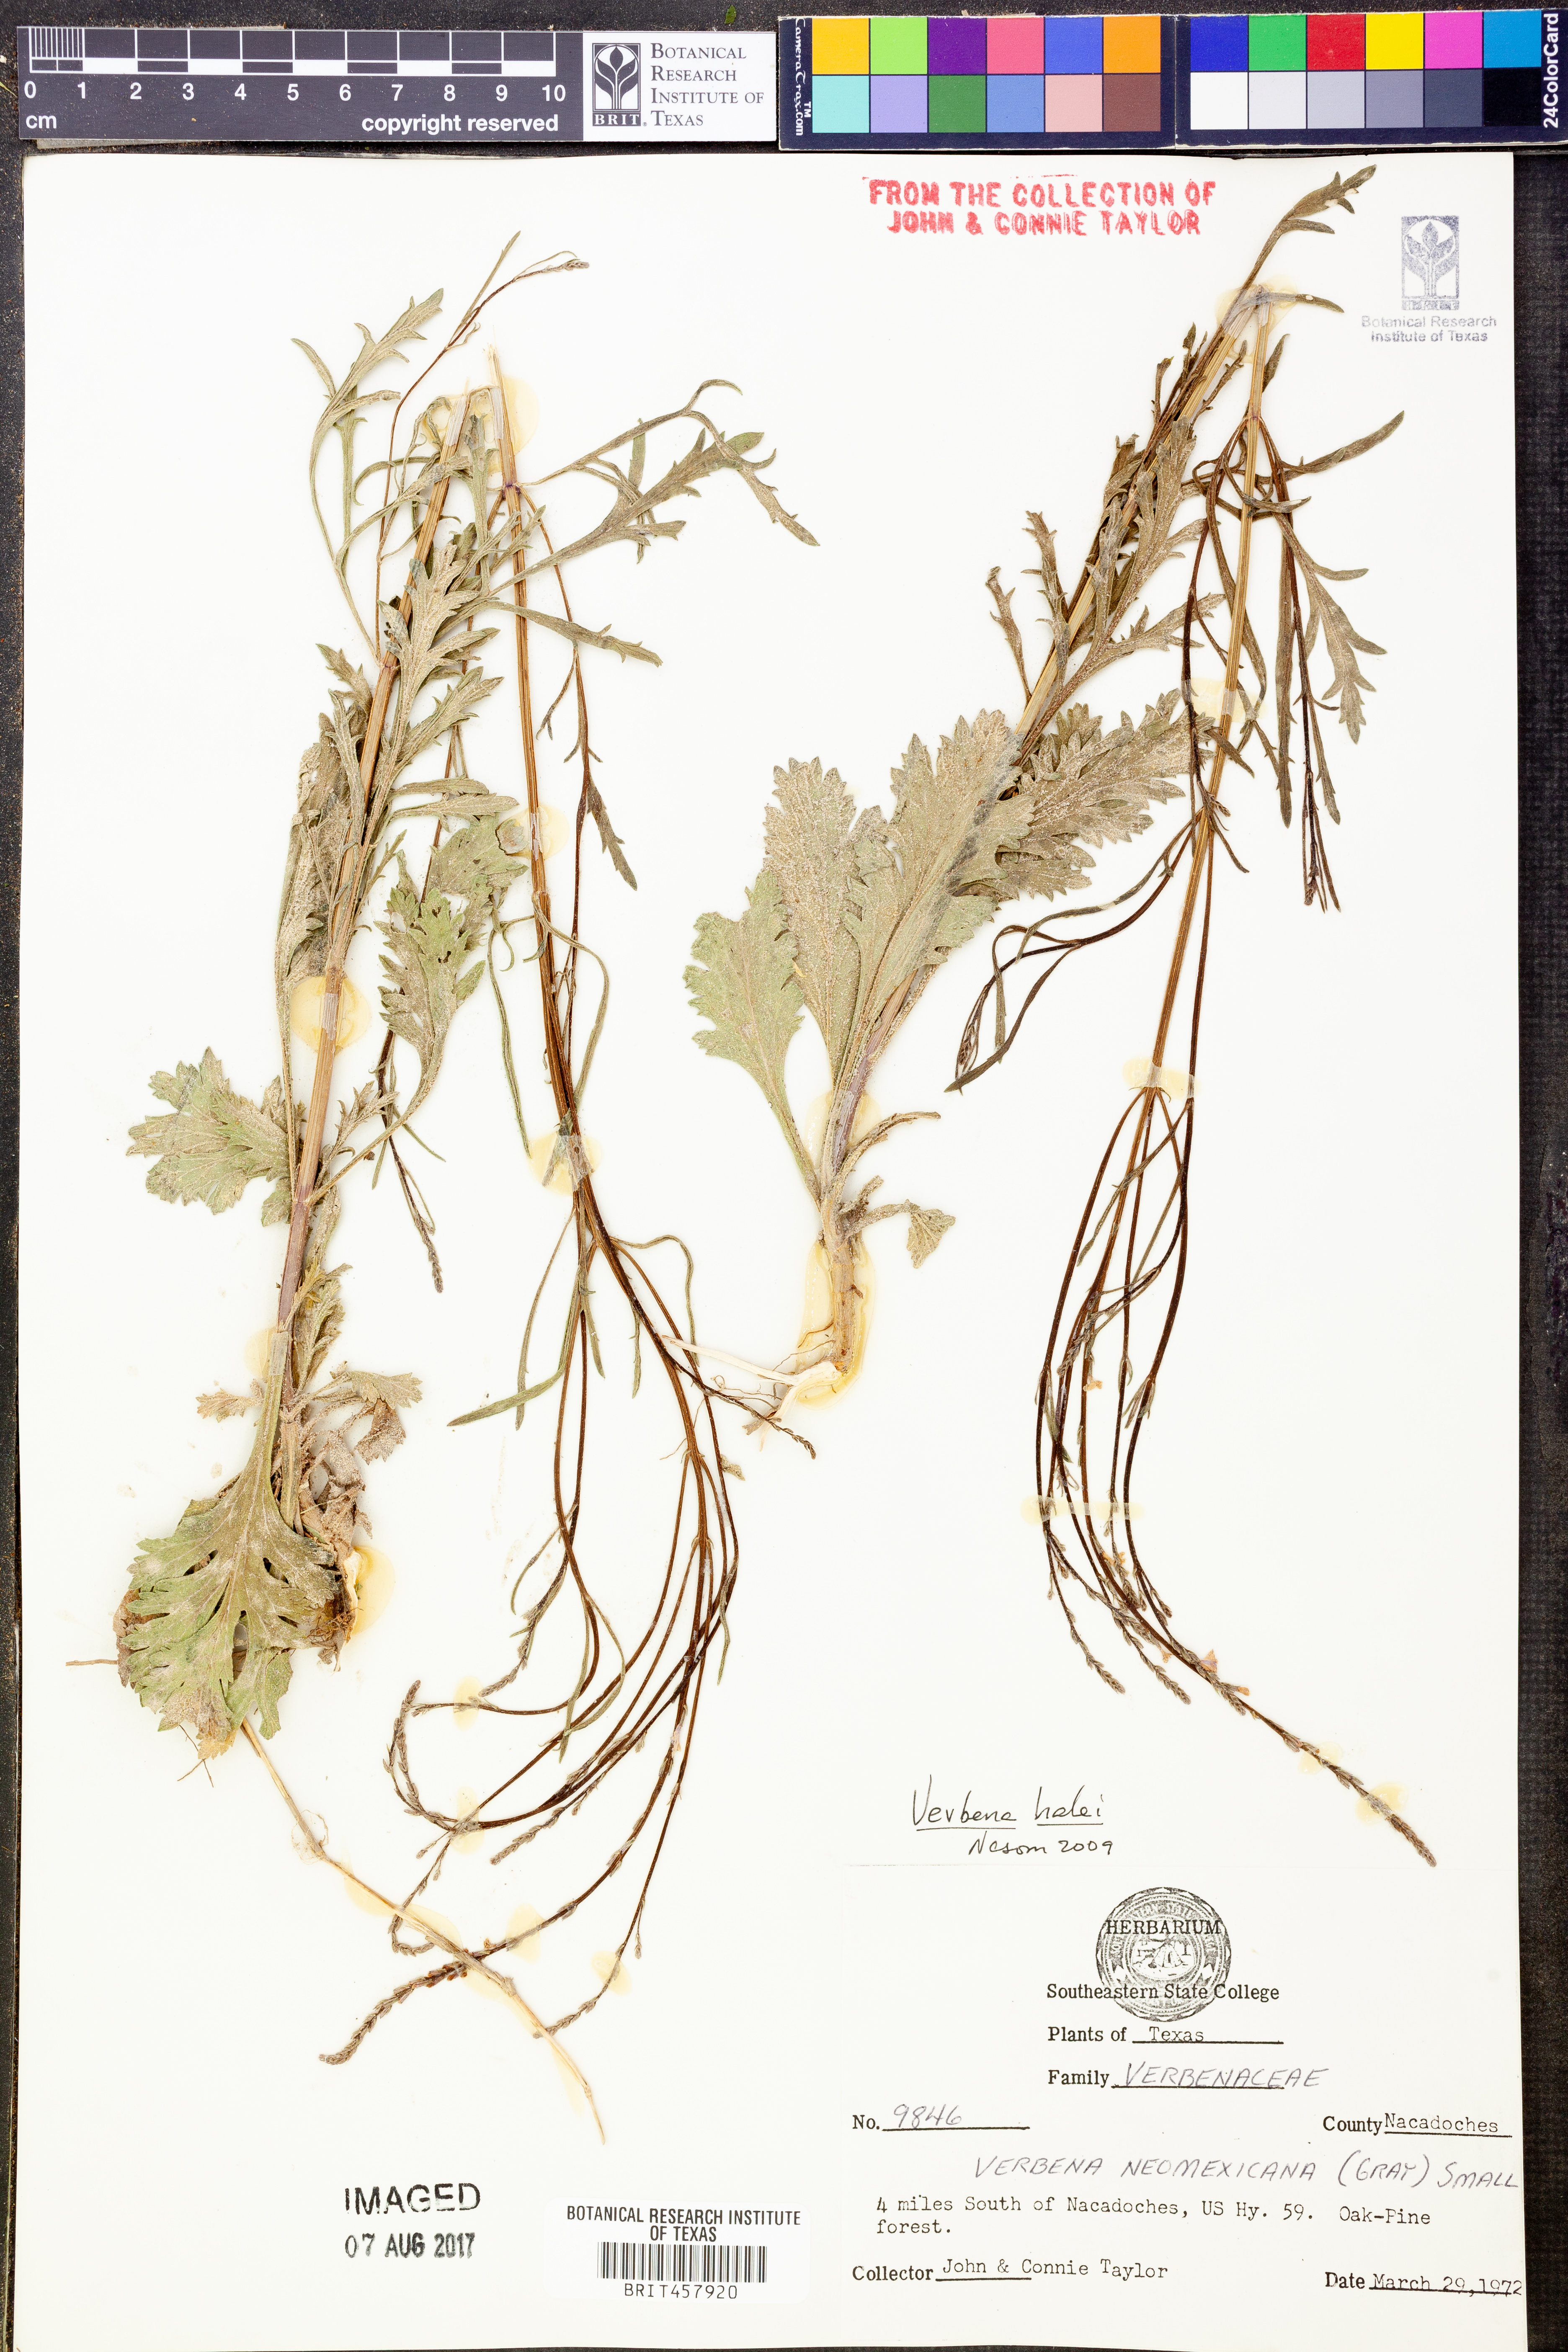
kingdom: Plantae
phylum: Tracheophyta
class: Magnoliopsida
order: Lamiales
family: Verbenaceae
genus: Verbena
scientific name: Verbena halei
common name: Texas vervain
